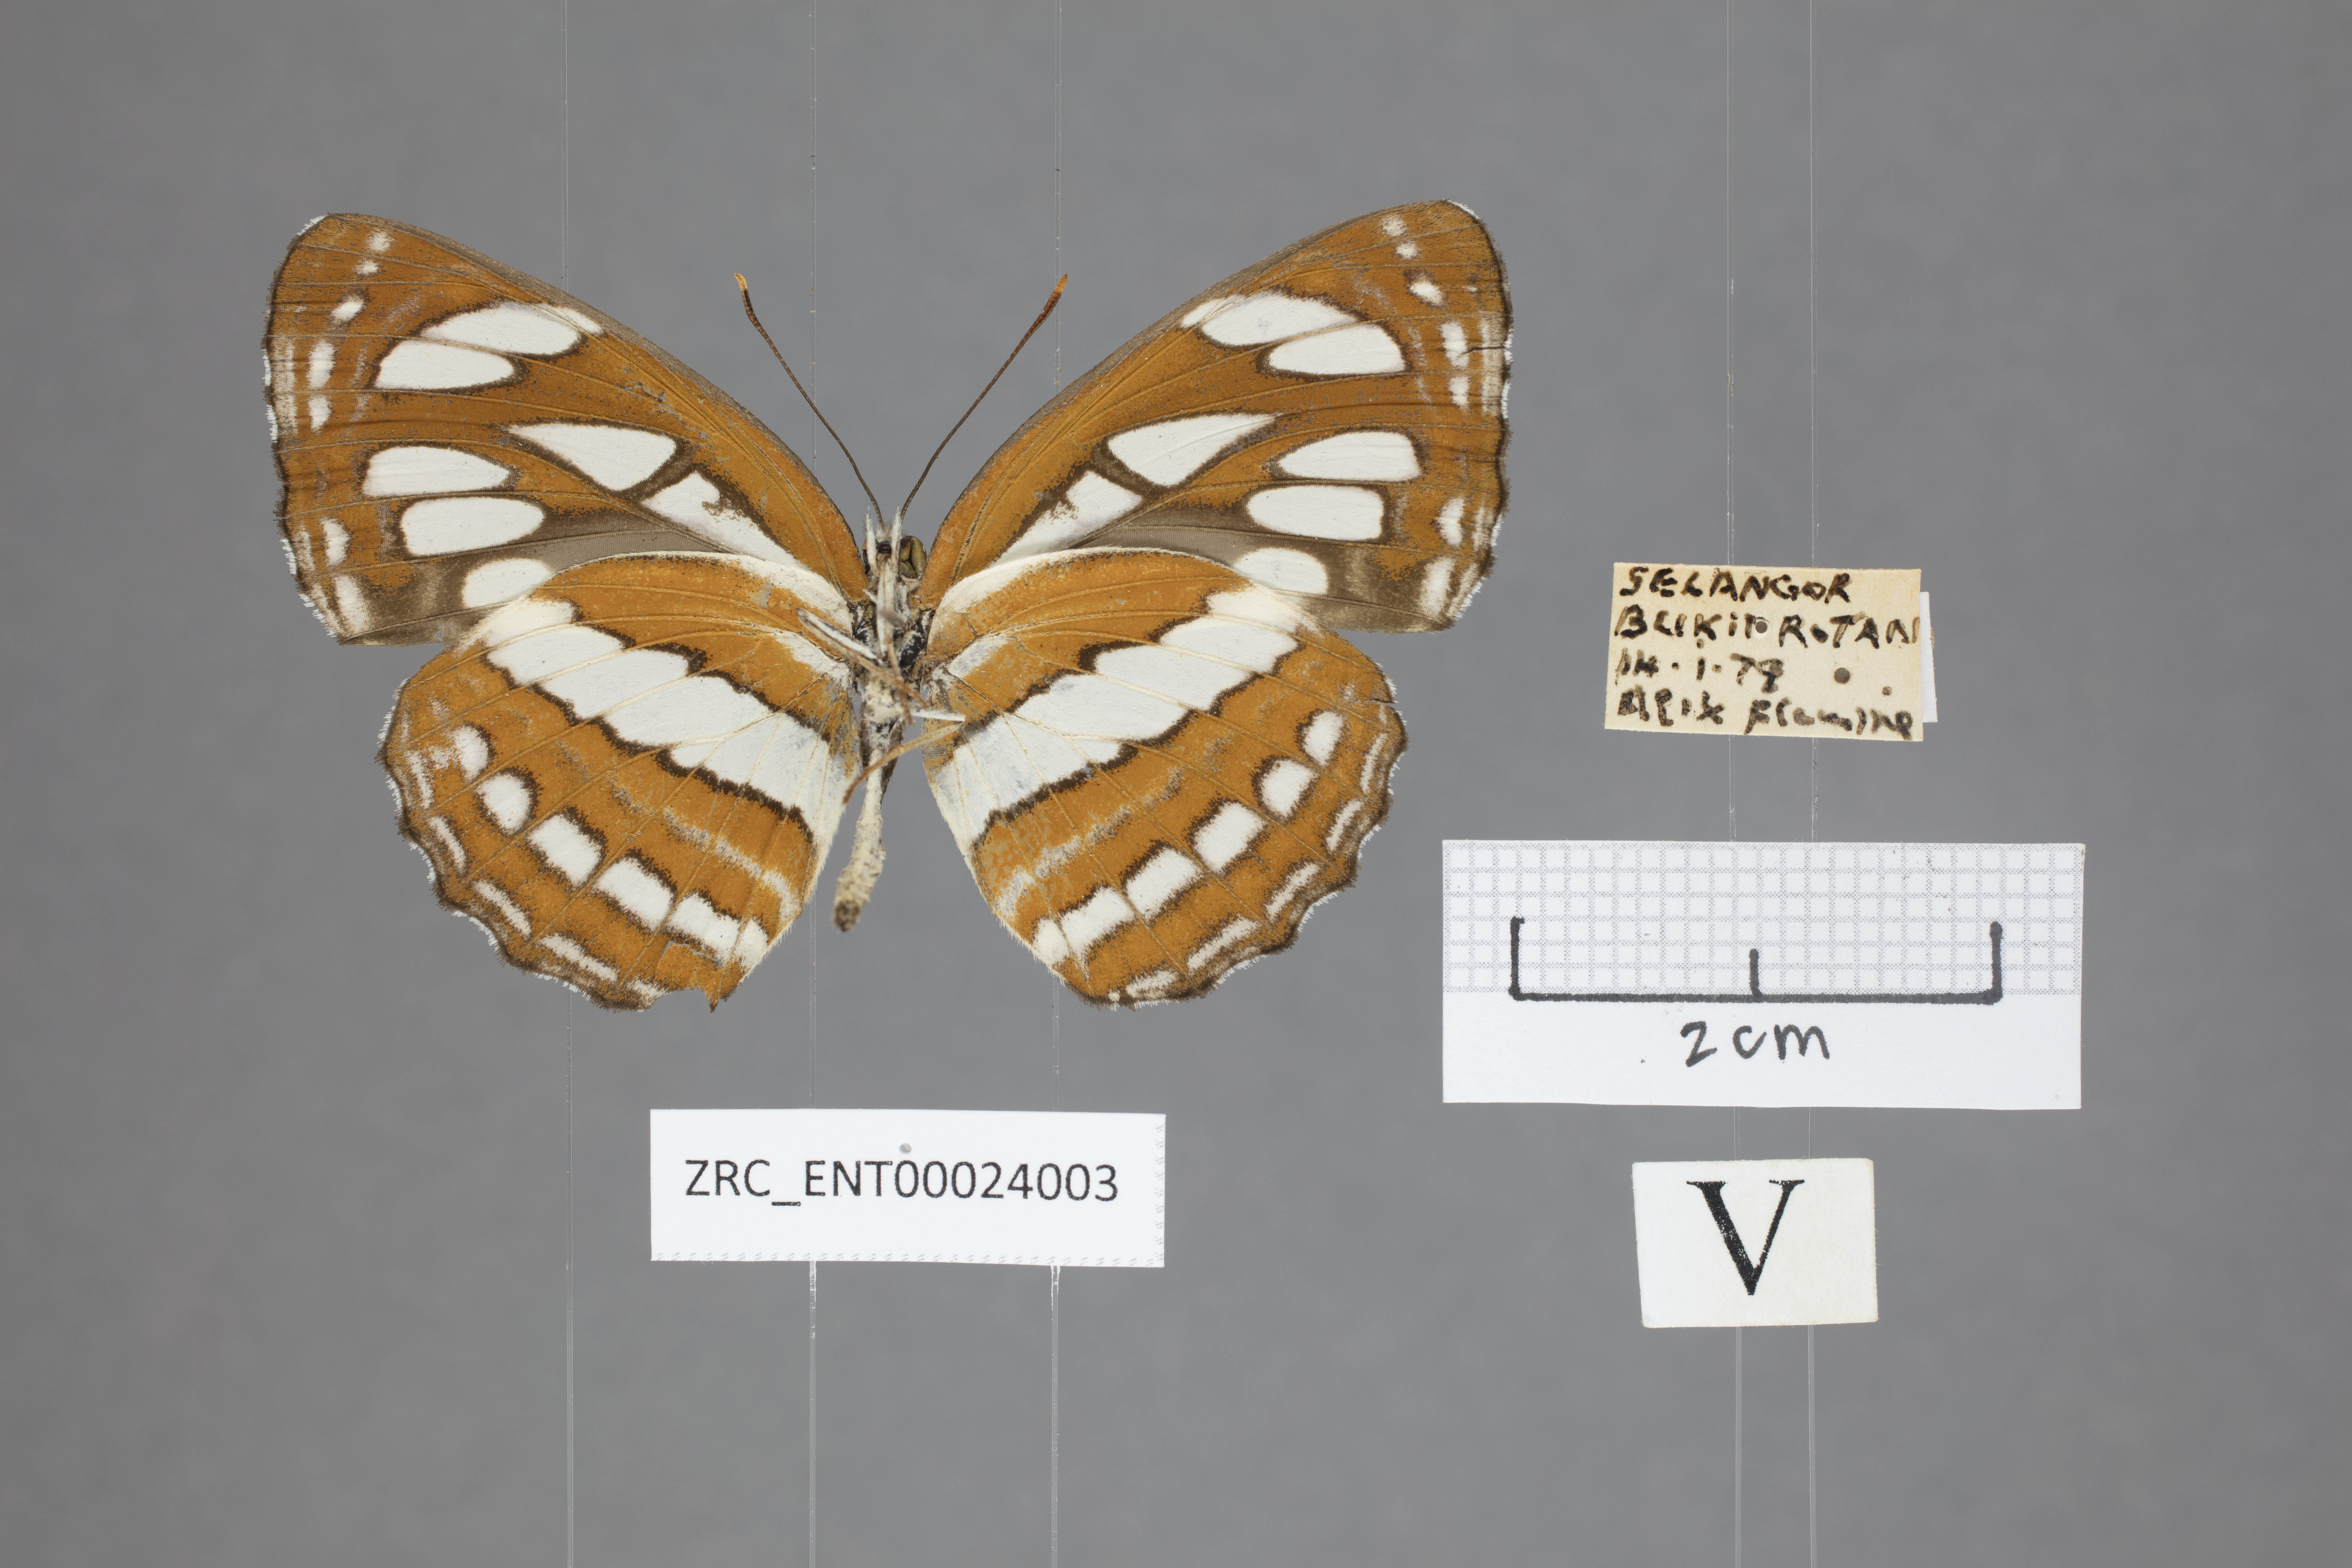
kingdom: Animalia
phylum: Arthropoda
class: Insecta
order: Lepidoptera
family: Nymphalidae
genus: Neptis
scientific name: Neptis hylas
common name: Common sailer
